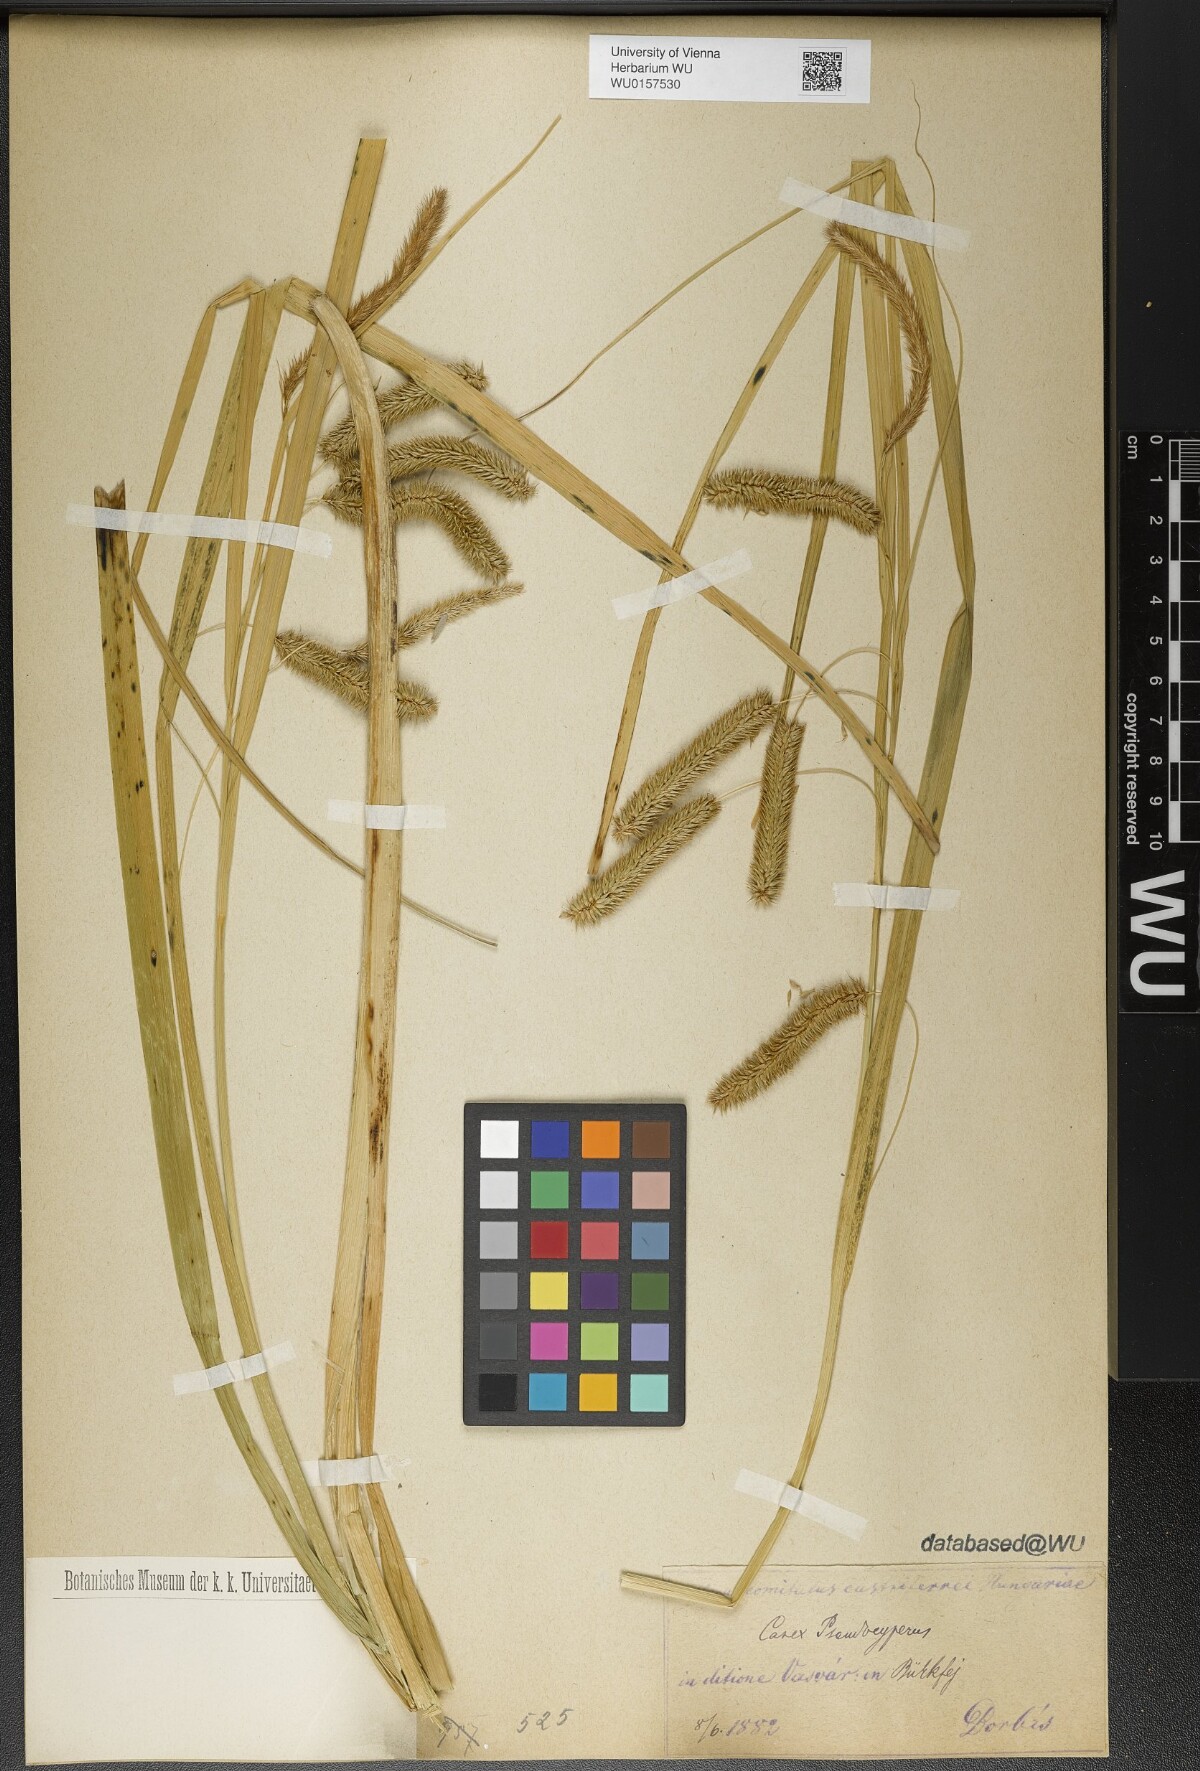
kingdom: Plantae
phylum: Tracheophyta
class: Liliopsida
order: Poales
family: Cyperaceae
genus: Carex
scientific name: Carex pseudocyperus
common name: Cyperus sedge
